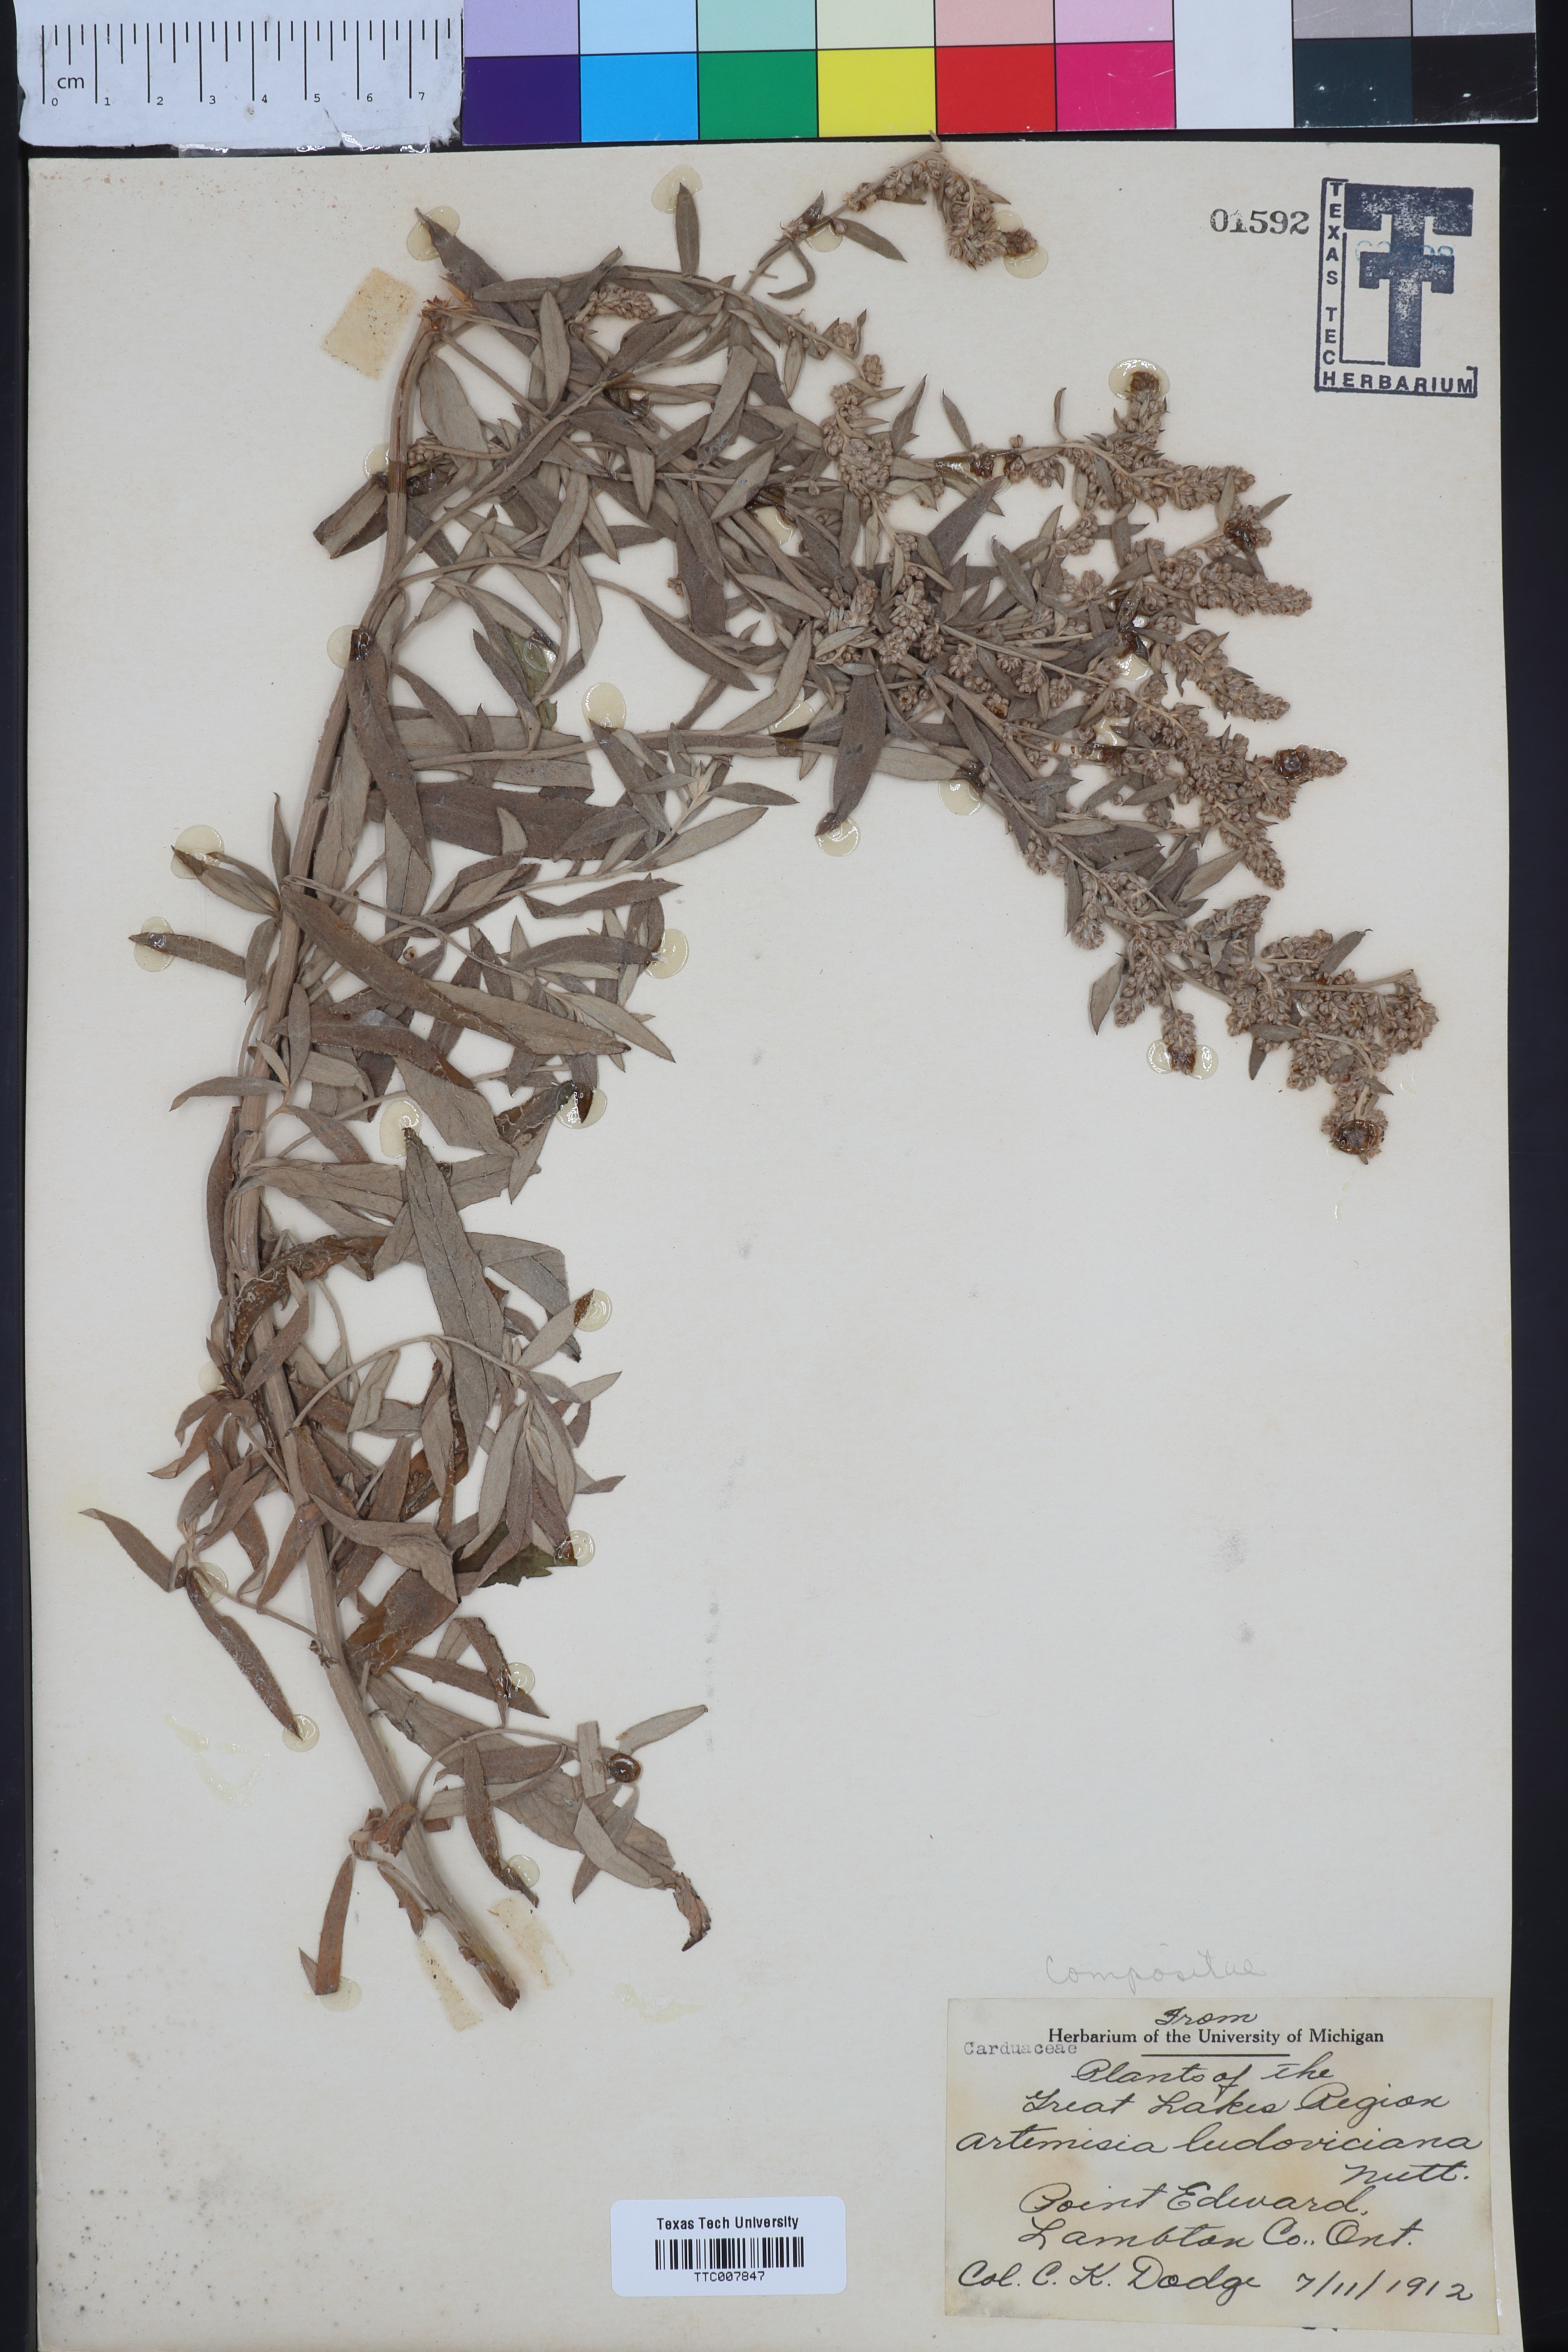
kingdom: Plantae
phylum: Tracheophyta
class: Magnoliopsida
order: Asterales
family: Asteraceae
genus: Artemisia
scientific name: Artemisia ludoviciana
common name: Western mugwort
